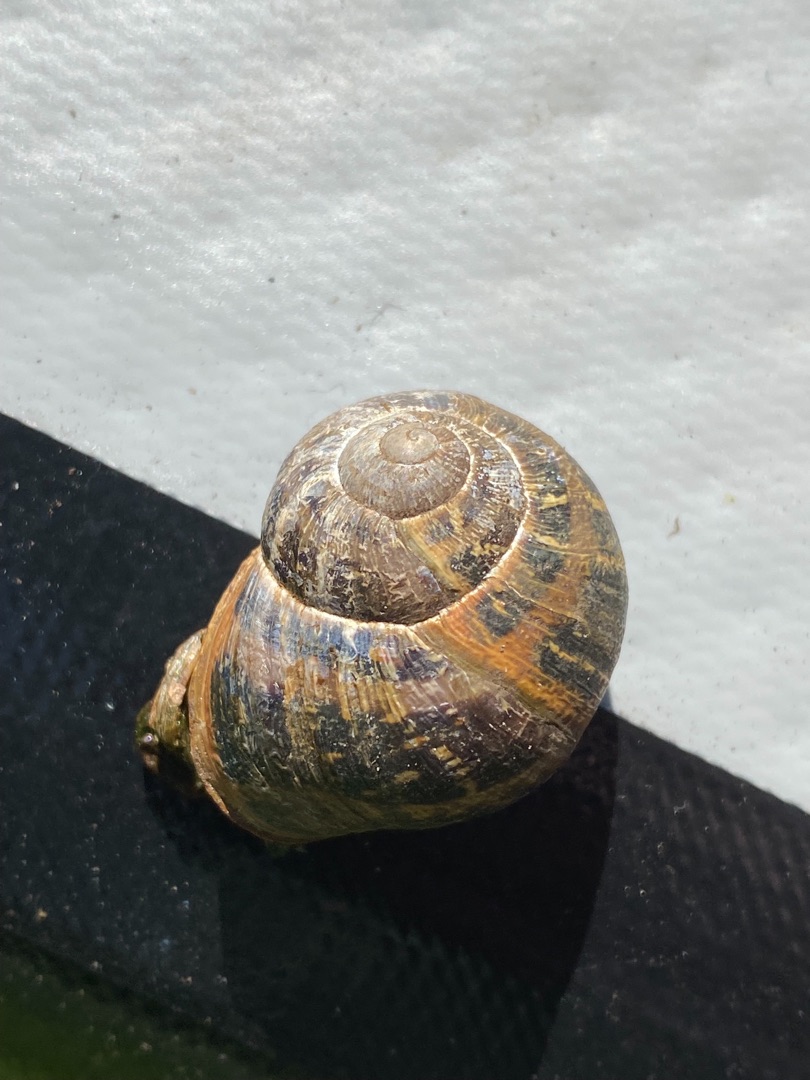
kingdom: Animalia
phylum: Mollusca
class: Gastropoda
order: Stylommatophora
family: Helicidae
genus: Cornu
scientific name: Cornu aspersum
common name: Plettet voldsnegl
